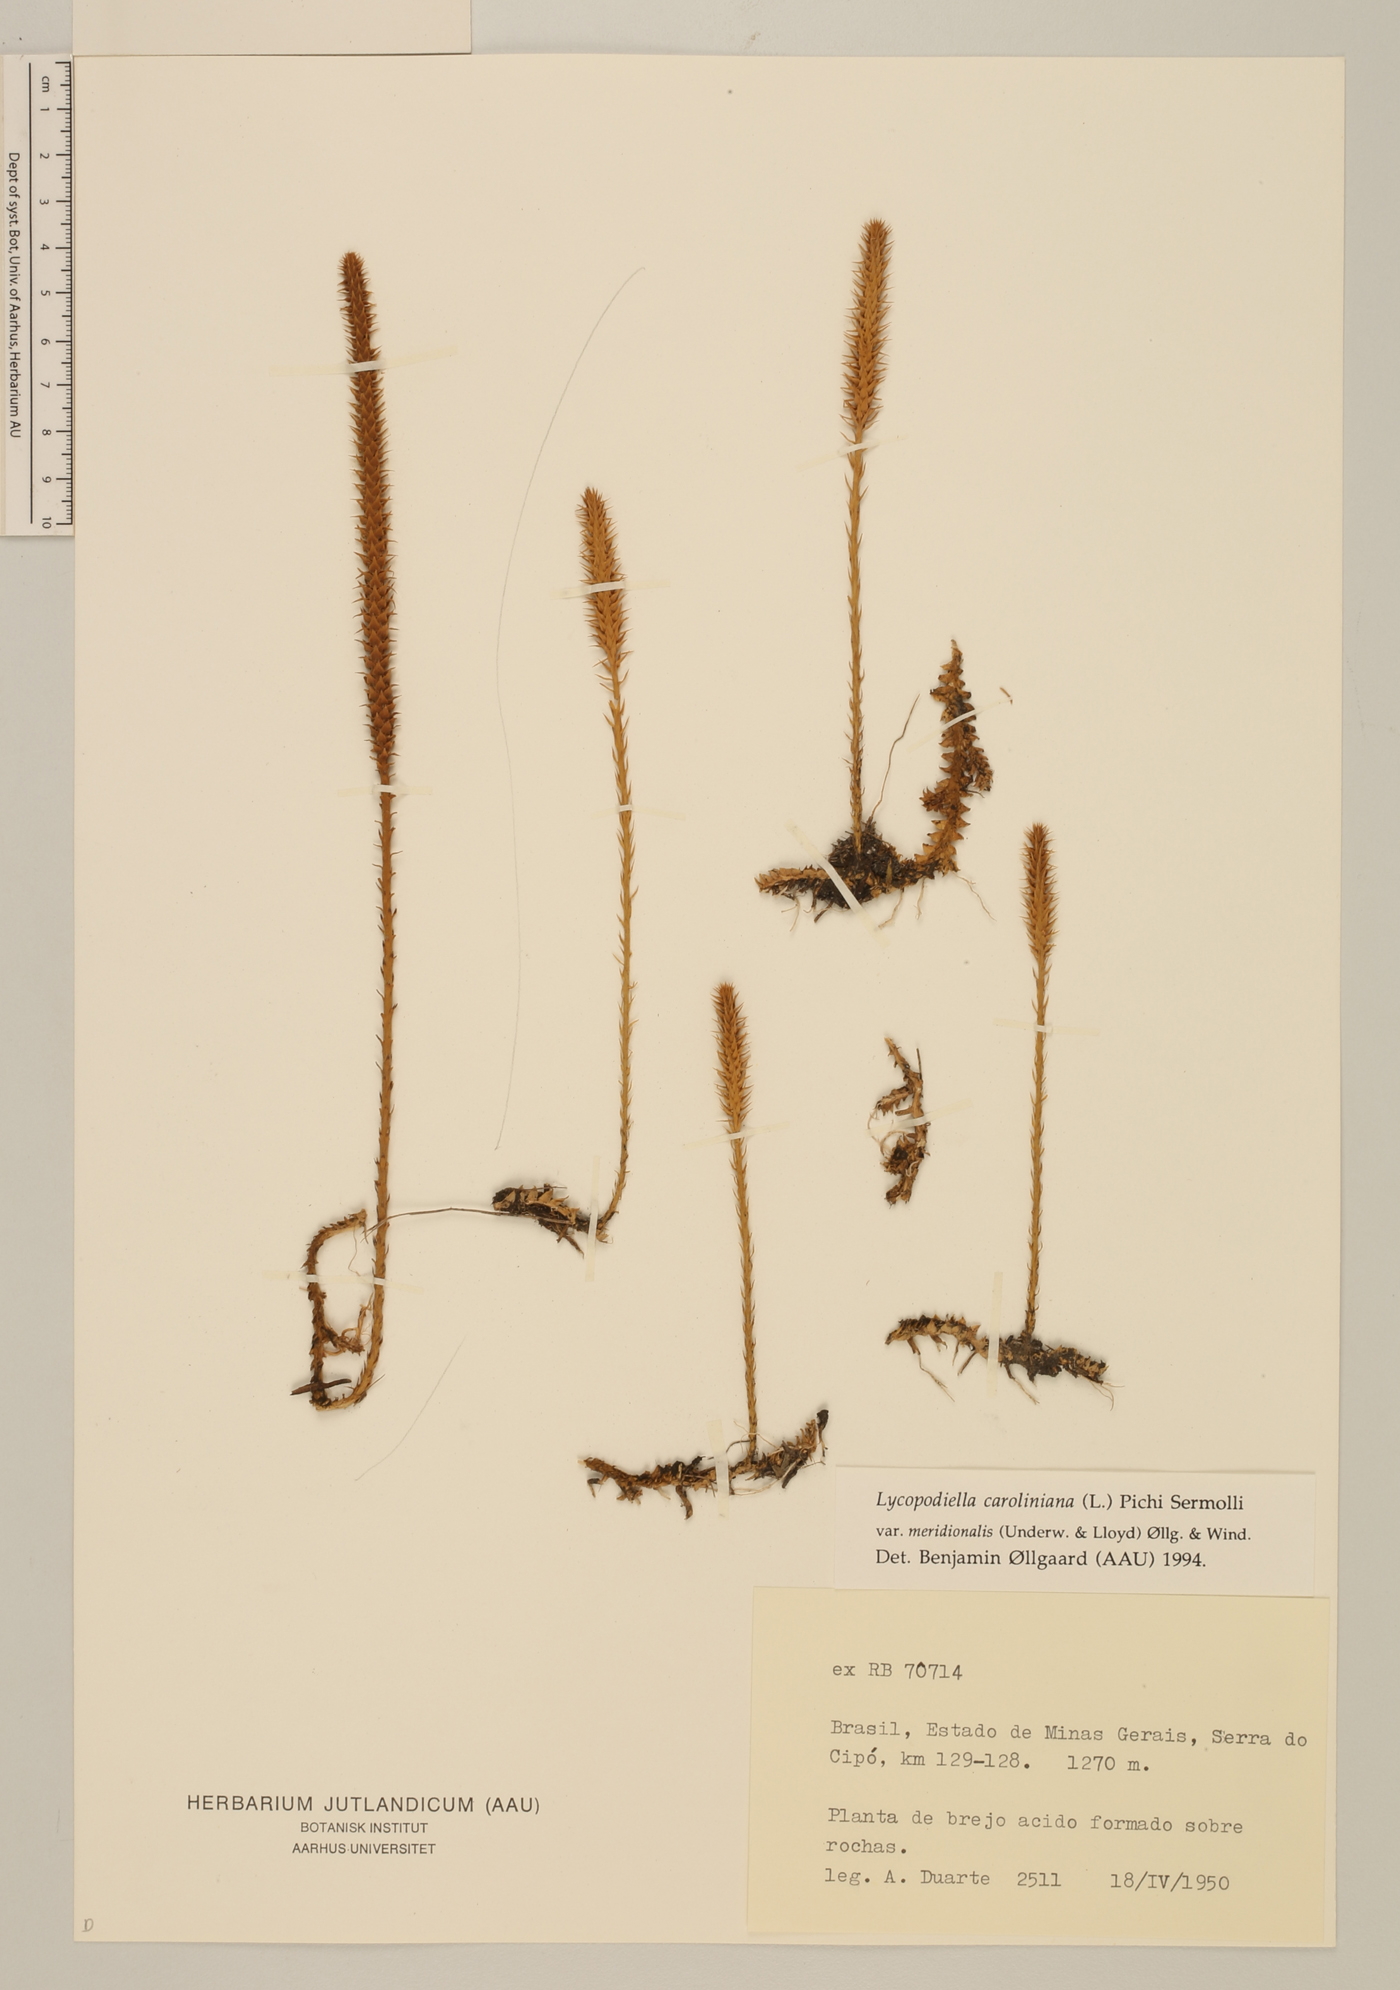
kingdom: Plantae
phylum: Tracheophyta
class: Lycopodiopsida
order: Lycopodiales
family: Lycopodiaceae
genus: Pseudolycopodiella
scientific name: Pseudolycopodiella meridionalis
